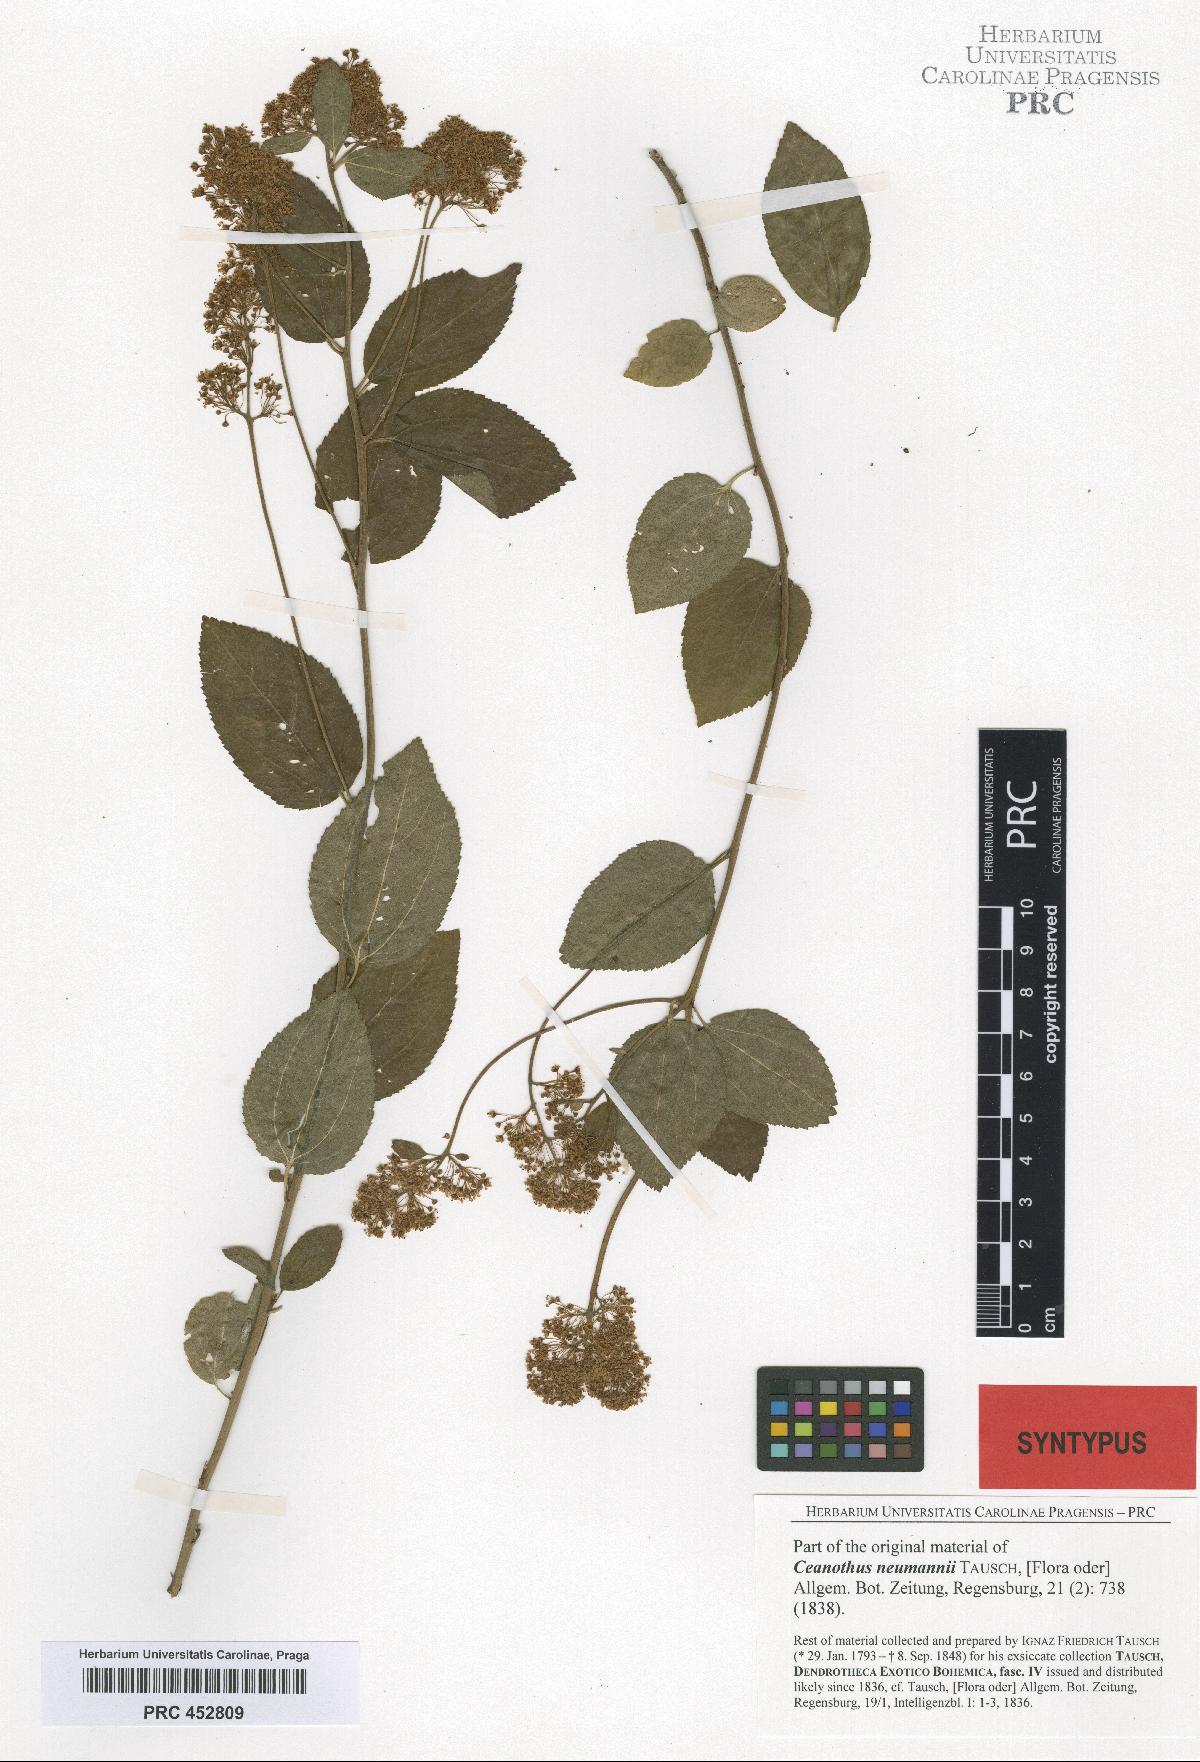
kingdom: Plantae
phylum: Tracheophyta
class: Magnoliopsida
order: Rosales
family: Rhamnaceae
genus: Ceanothus
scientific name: Ceanothus neumannii
